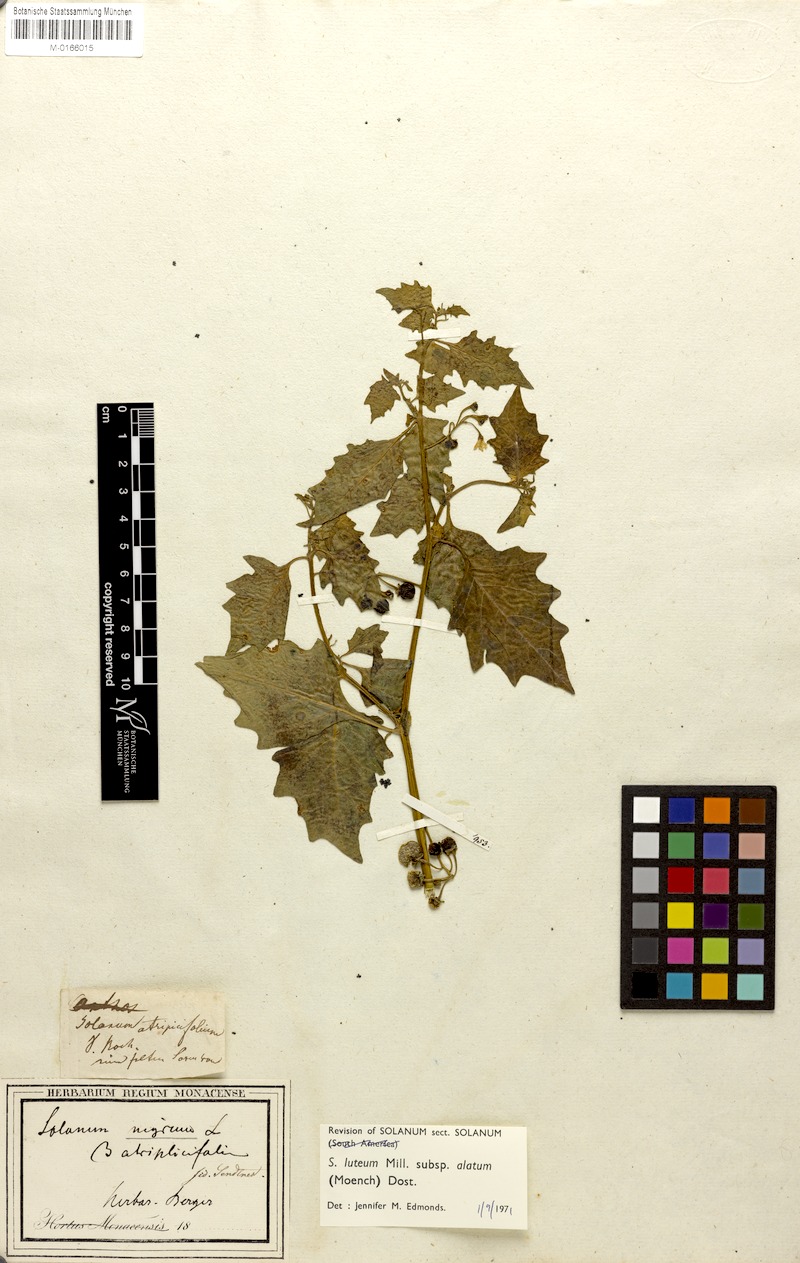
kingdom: Plantae
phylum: Tracheophyta
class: Magnoliopsida
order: Solanales
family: Solanaceae
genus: Solanum
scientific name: Solanum alatum
